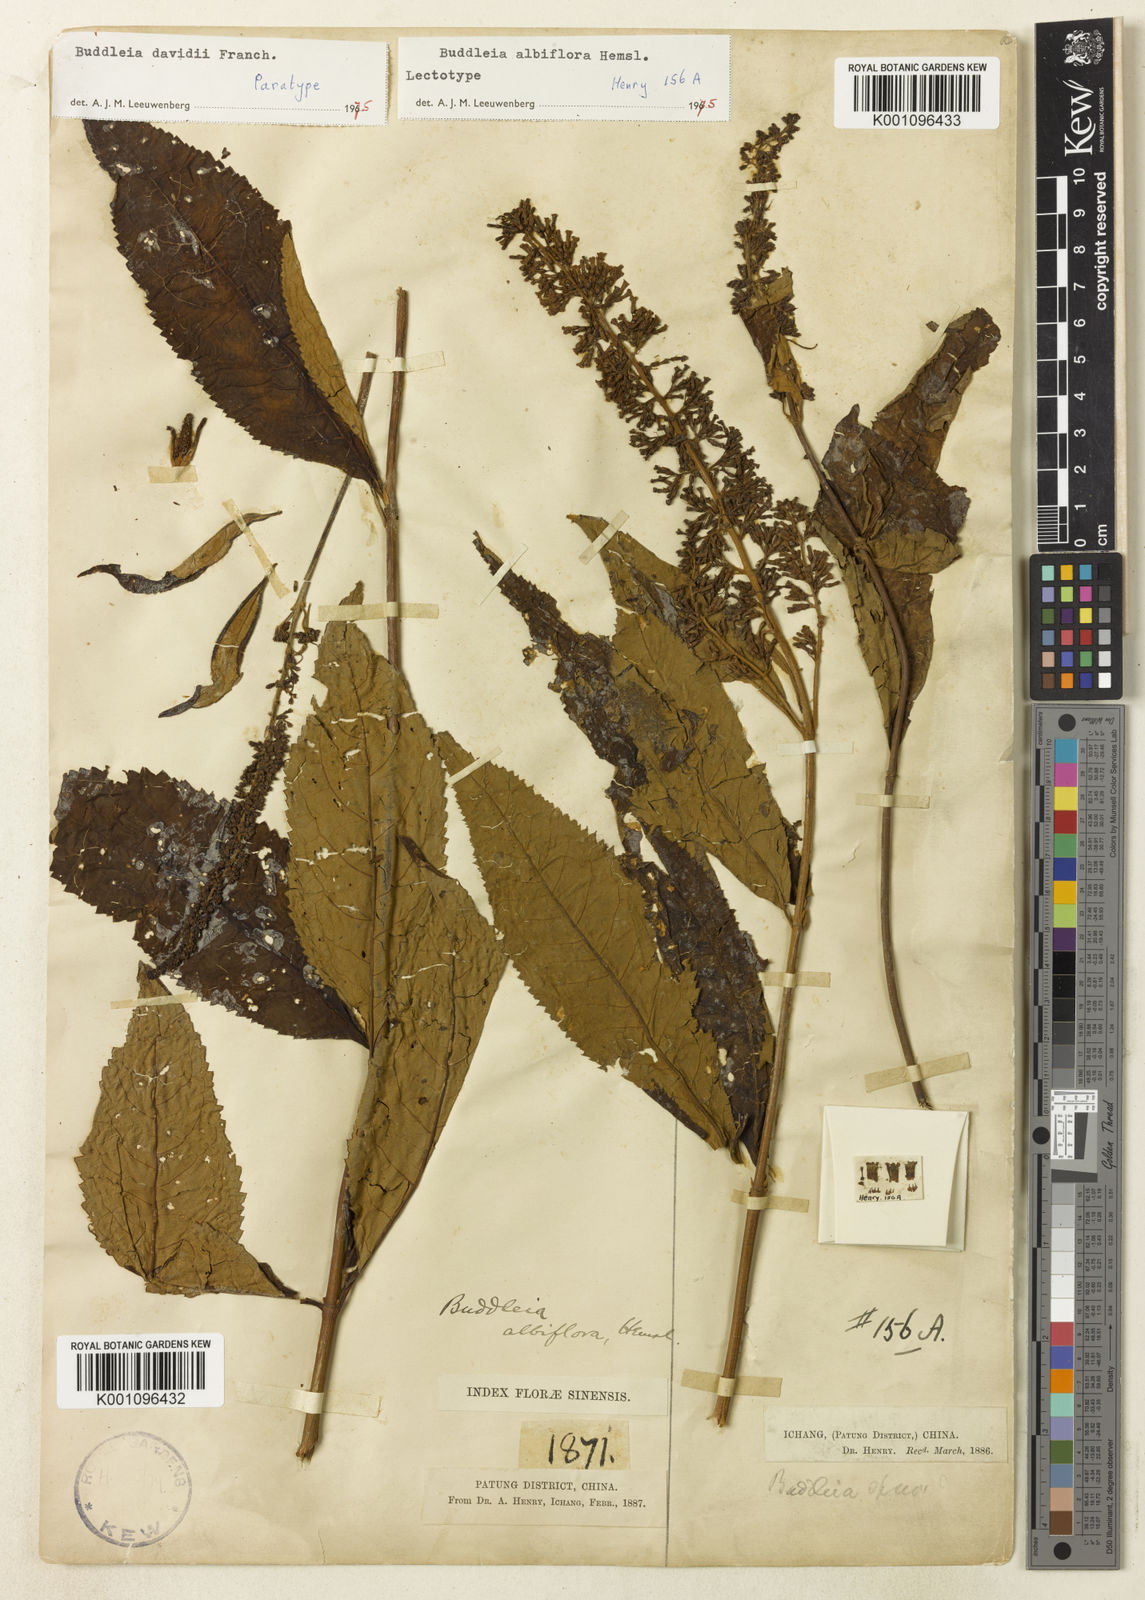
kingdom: Plantae
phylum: Tracheophyta
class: Magnoliopsida
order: Lamiales
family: Scrophulariaceae
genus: Buddleja
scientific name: Buddleja albiflora
